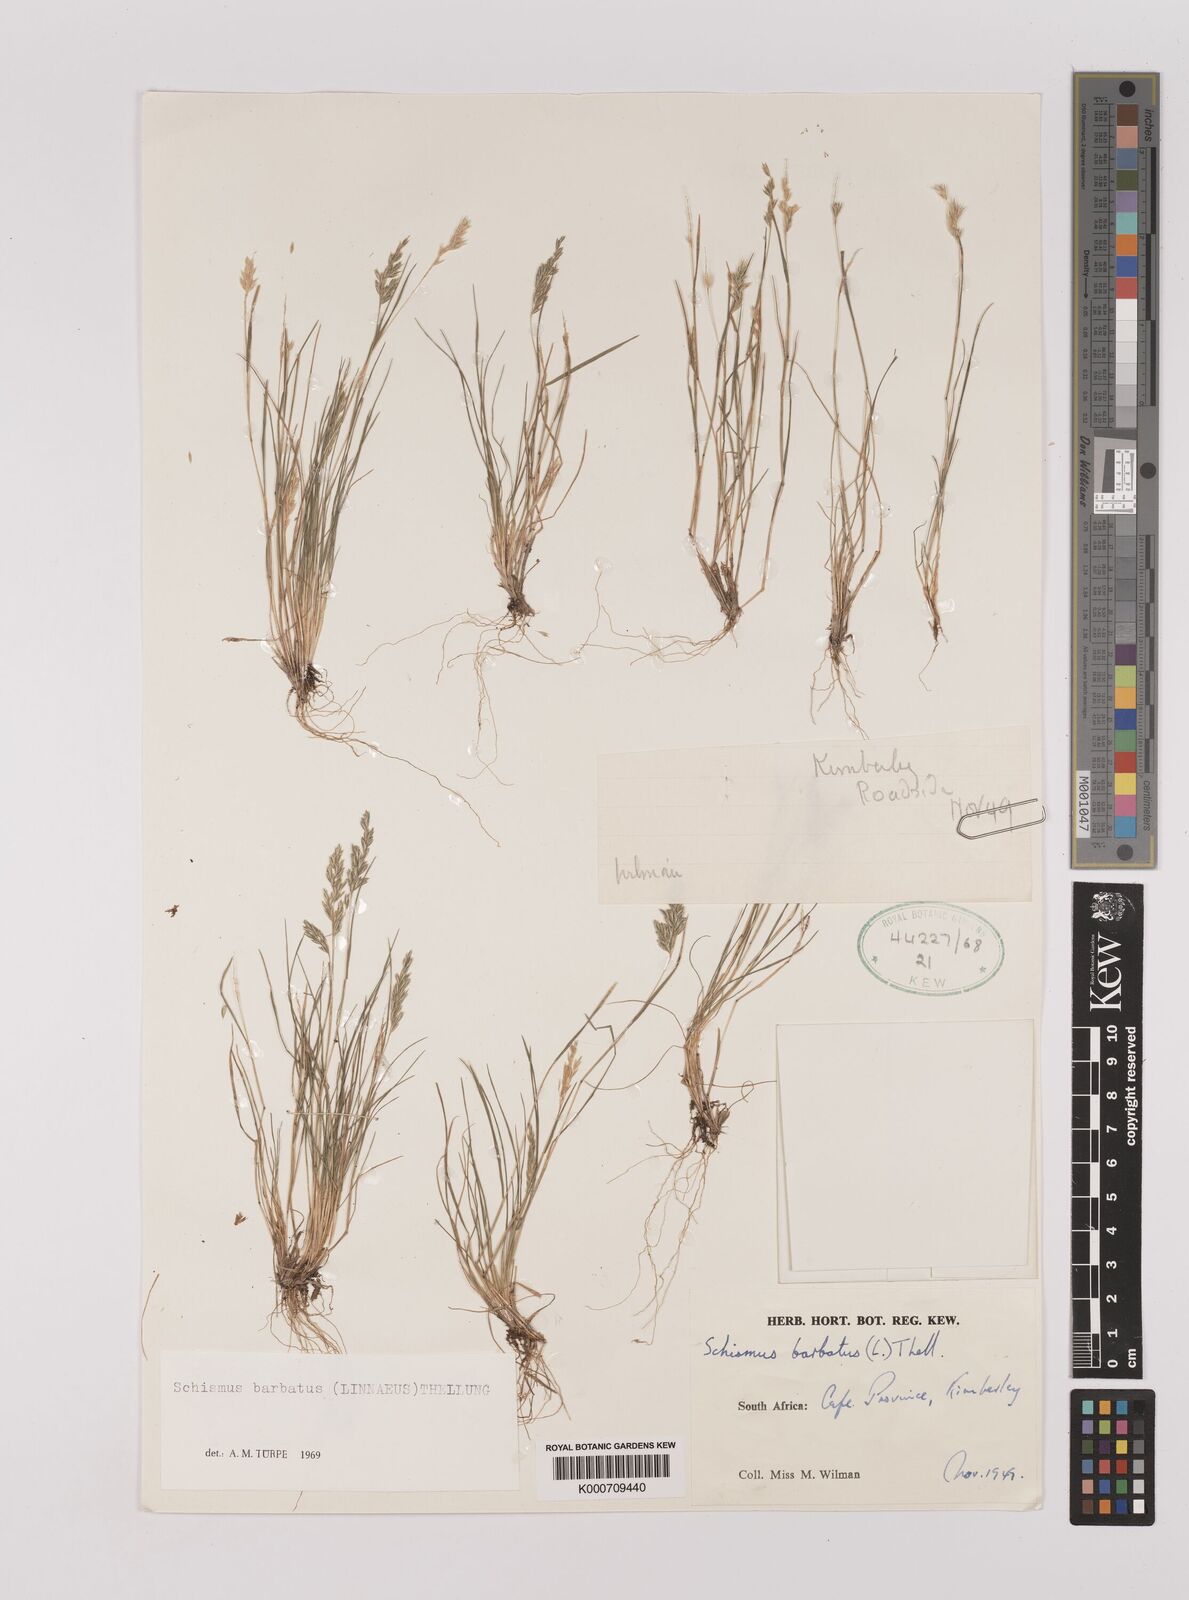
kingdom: Plantae
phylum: Tracheophyta
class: Liliopsida
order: Poales
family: Poaceae
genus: Schismus
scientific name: Schismus barbatus
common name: Kelch-grass
